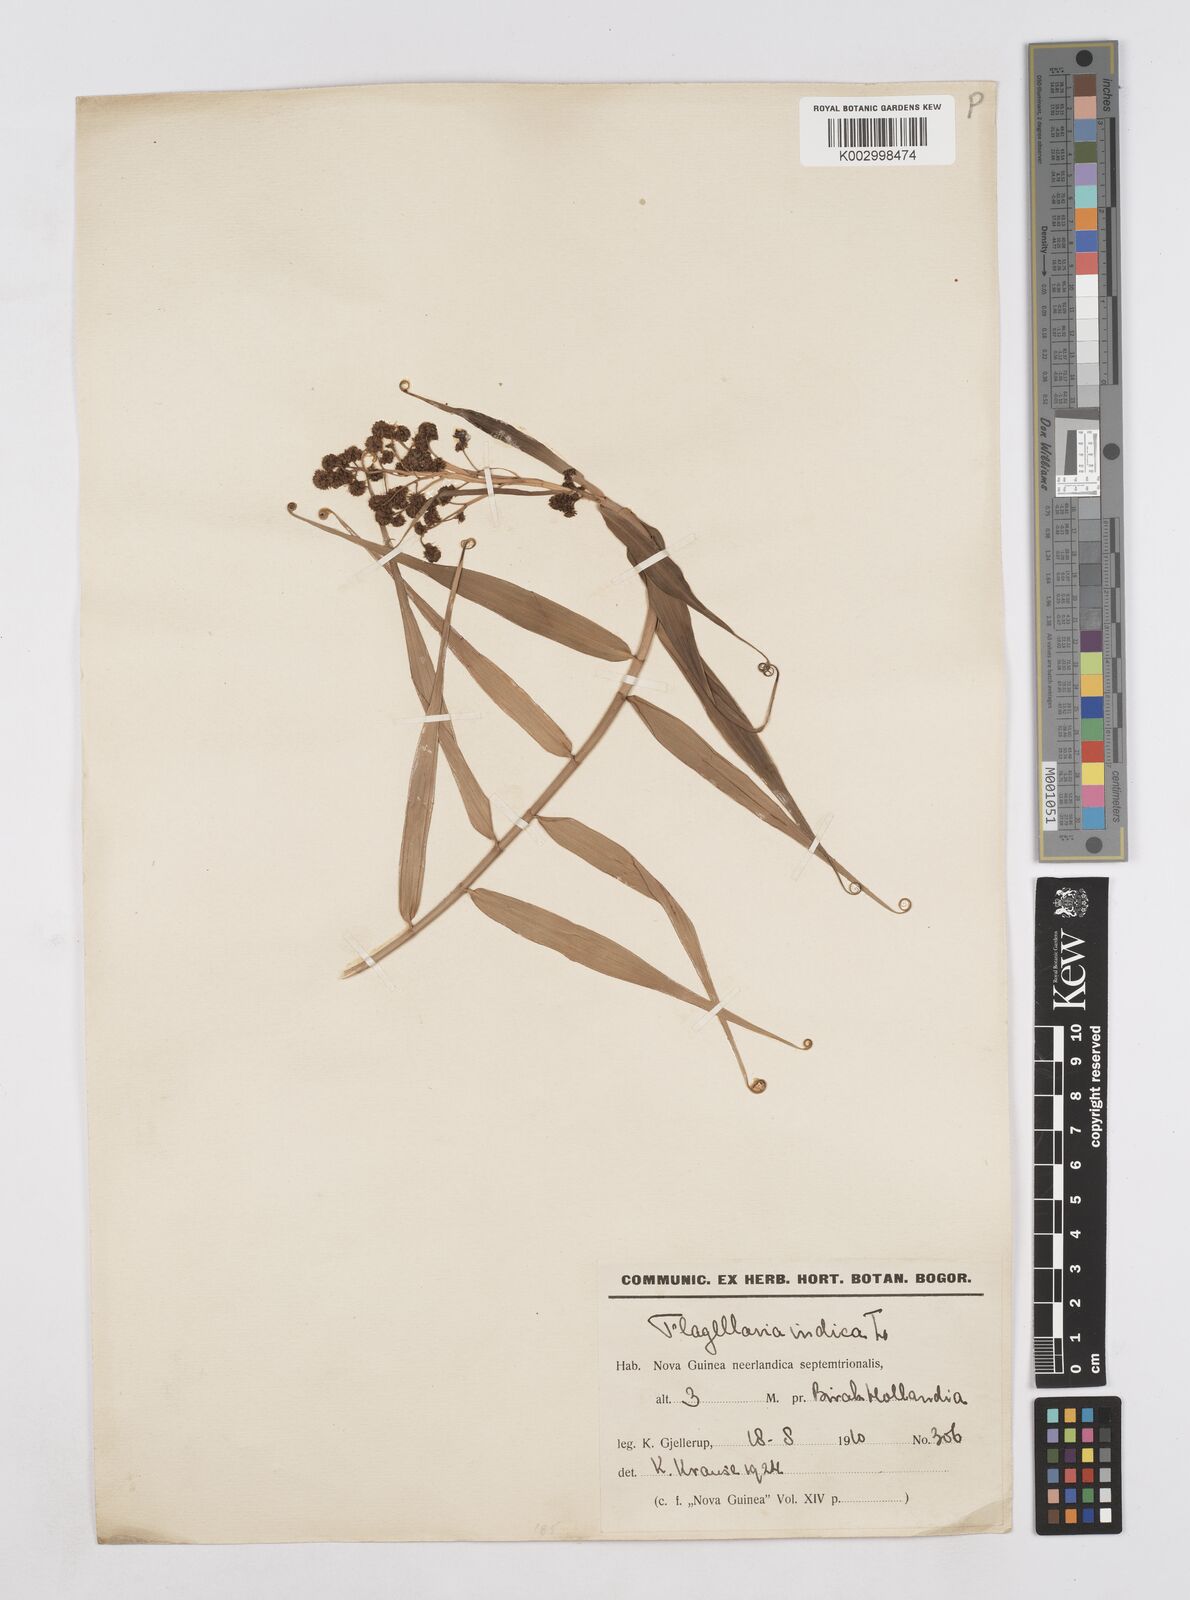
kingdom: Plantae
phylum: Tracheophyta
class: Liliopsida
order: Poales
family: Flagellariaceae
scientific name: Flagellariaceae
